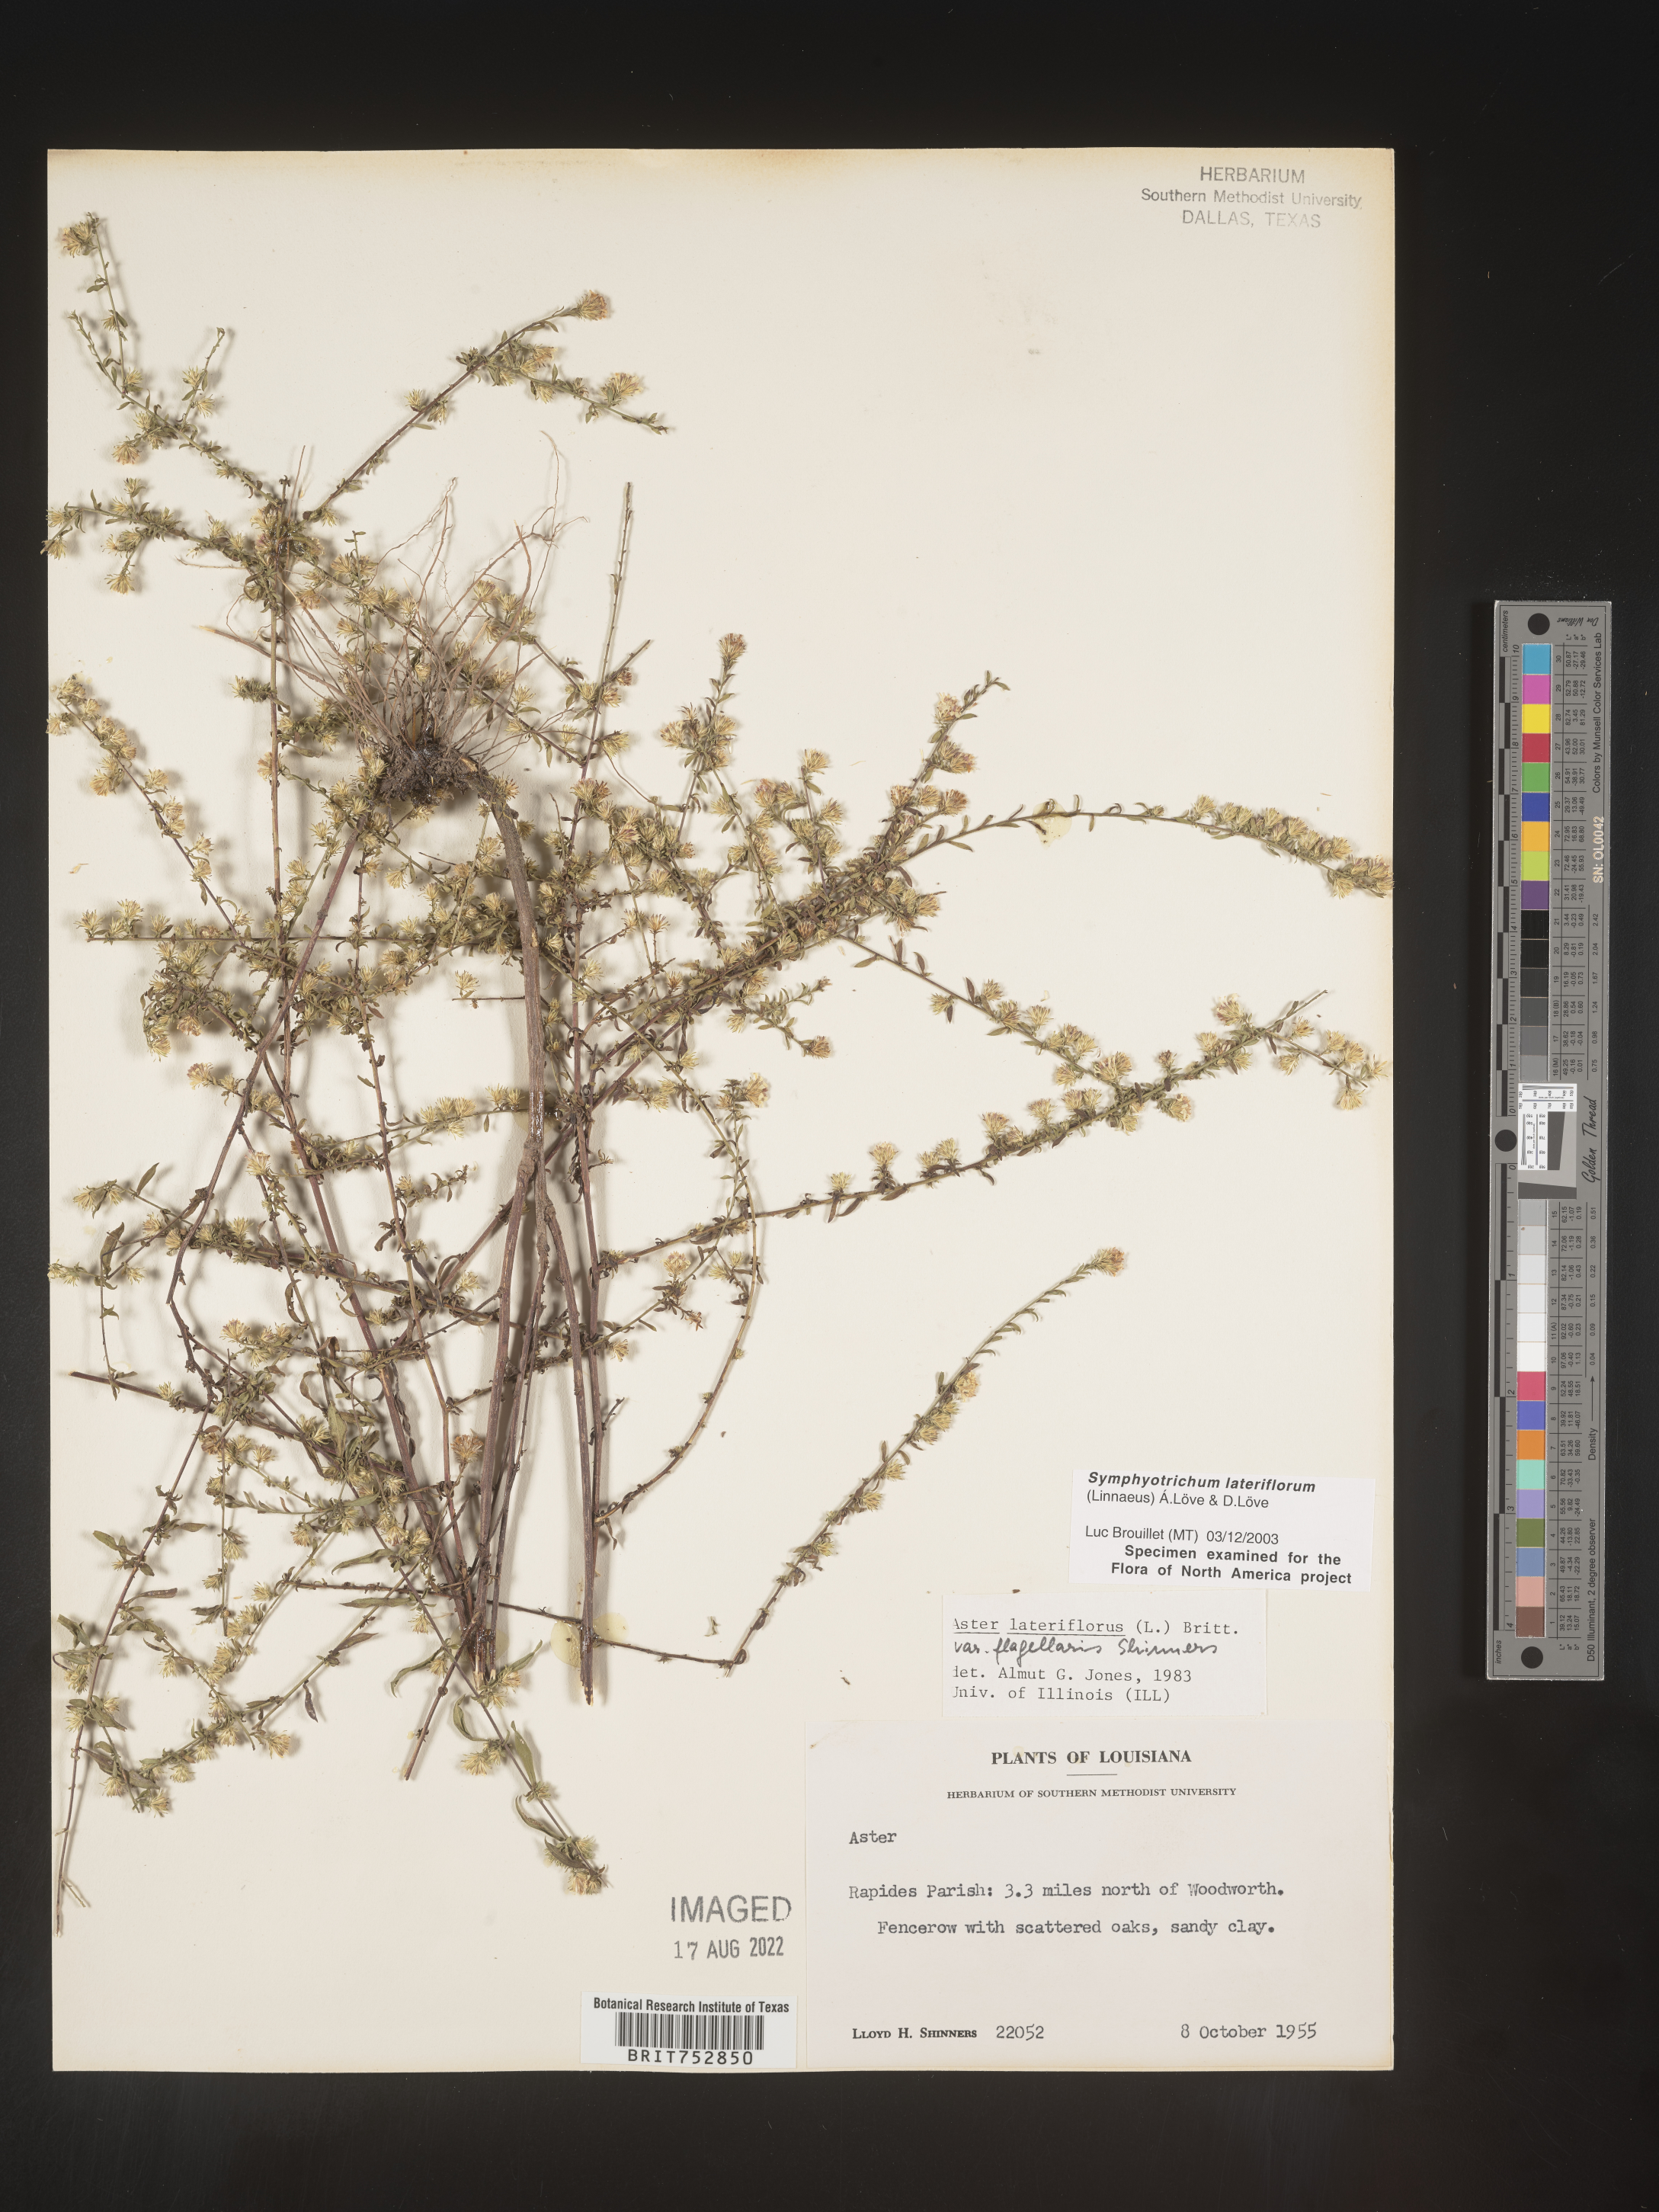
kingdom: Plantae
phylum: Tracheophyta
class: Magnoliopsida
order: Asterales
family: Asteraceae
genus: Symphyotrichum
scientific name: Symphyotrichum lateriflorum
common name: Calico aster
